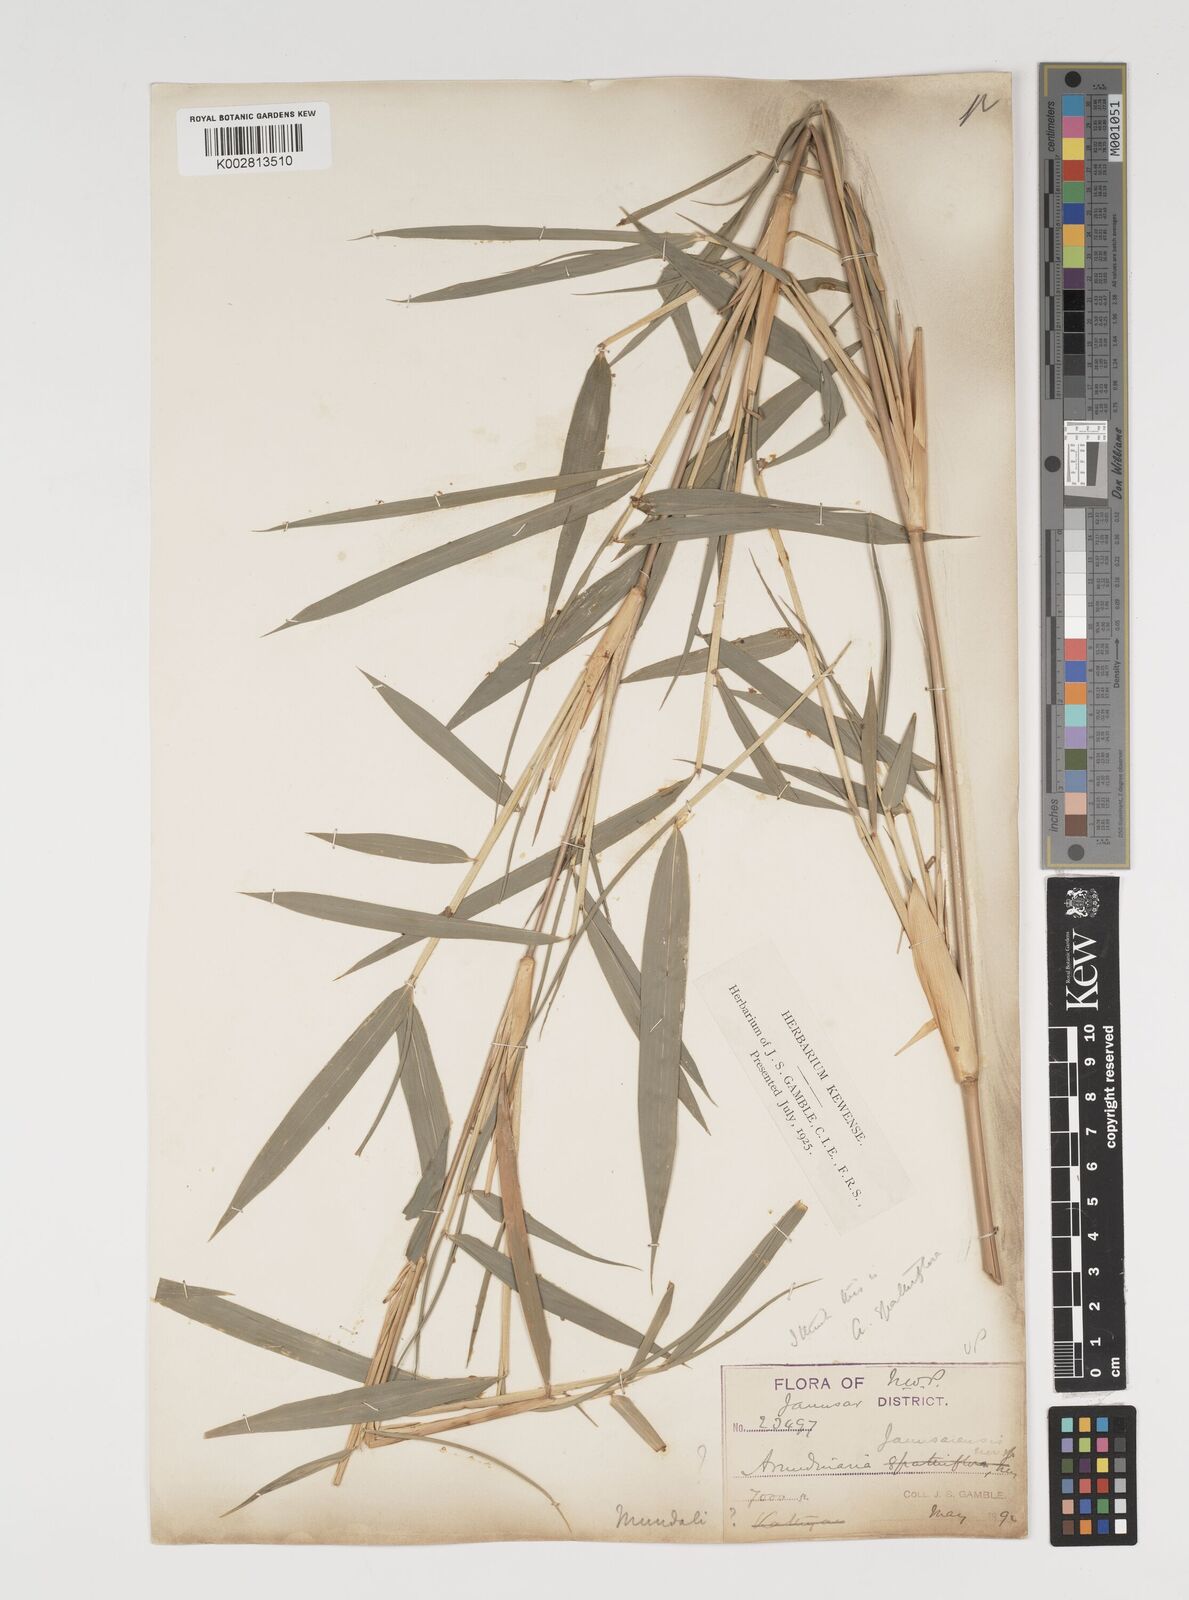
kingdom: Plantae
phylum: Tracheophyta
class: Liliopsida
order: Poales
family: Poaceae
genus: Thamnocalamus
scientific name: Thamnocalamus spathiflorus
